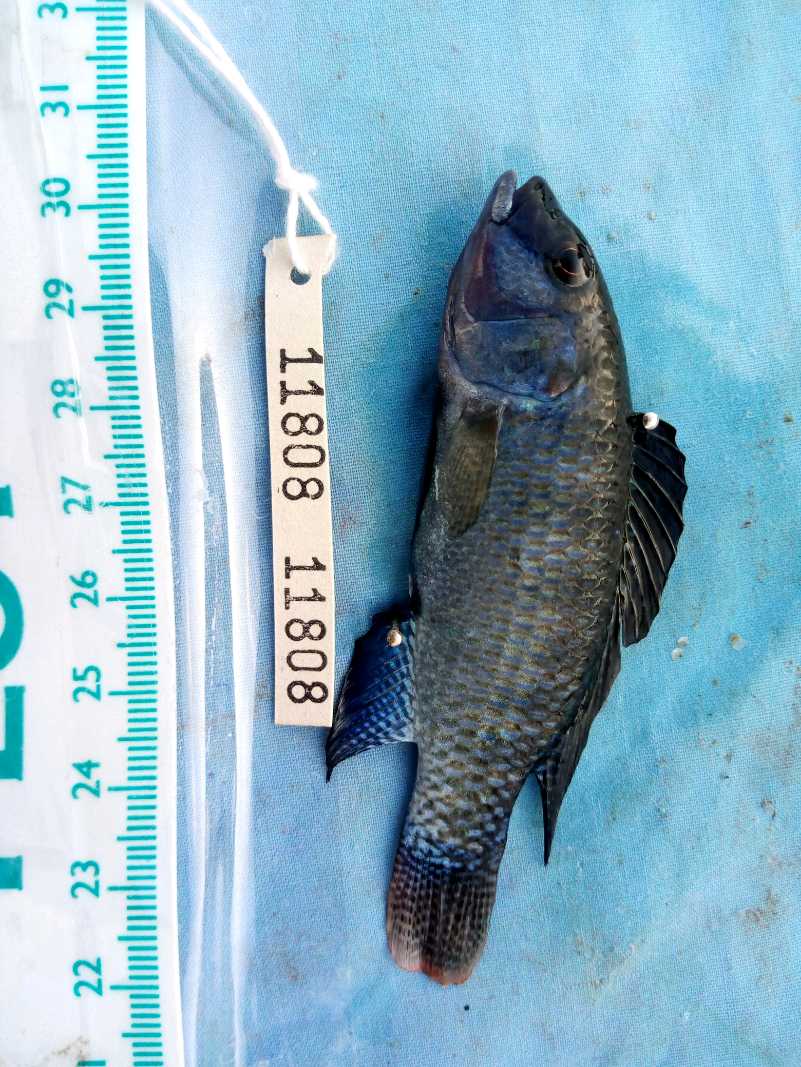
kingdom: Animalia
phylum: Chordata
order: Perciformes
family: Cichlidae
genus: Alcolapia
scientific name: Alcolapia grahami
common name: Lake magadi tilapia
